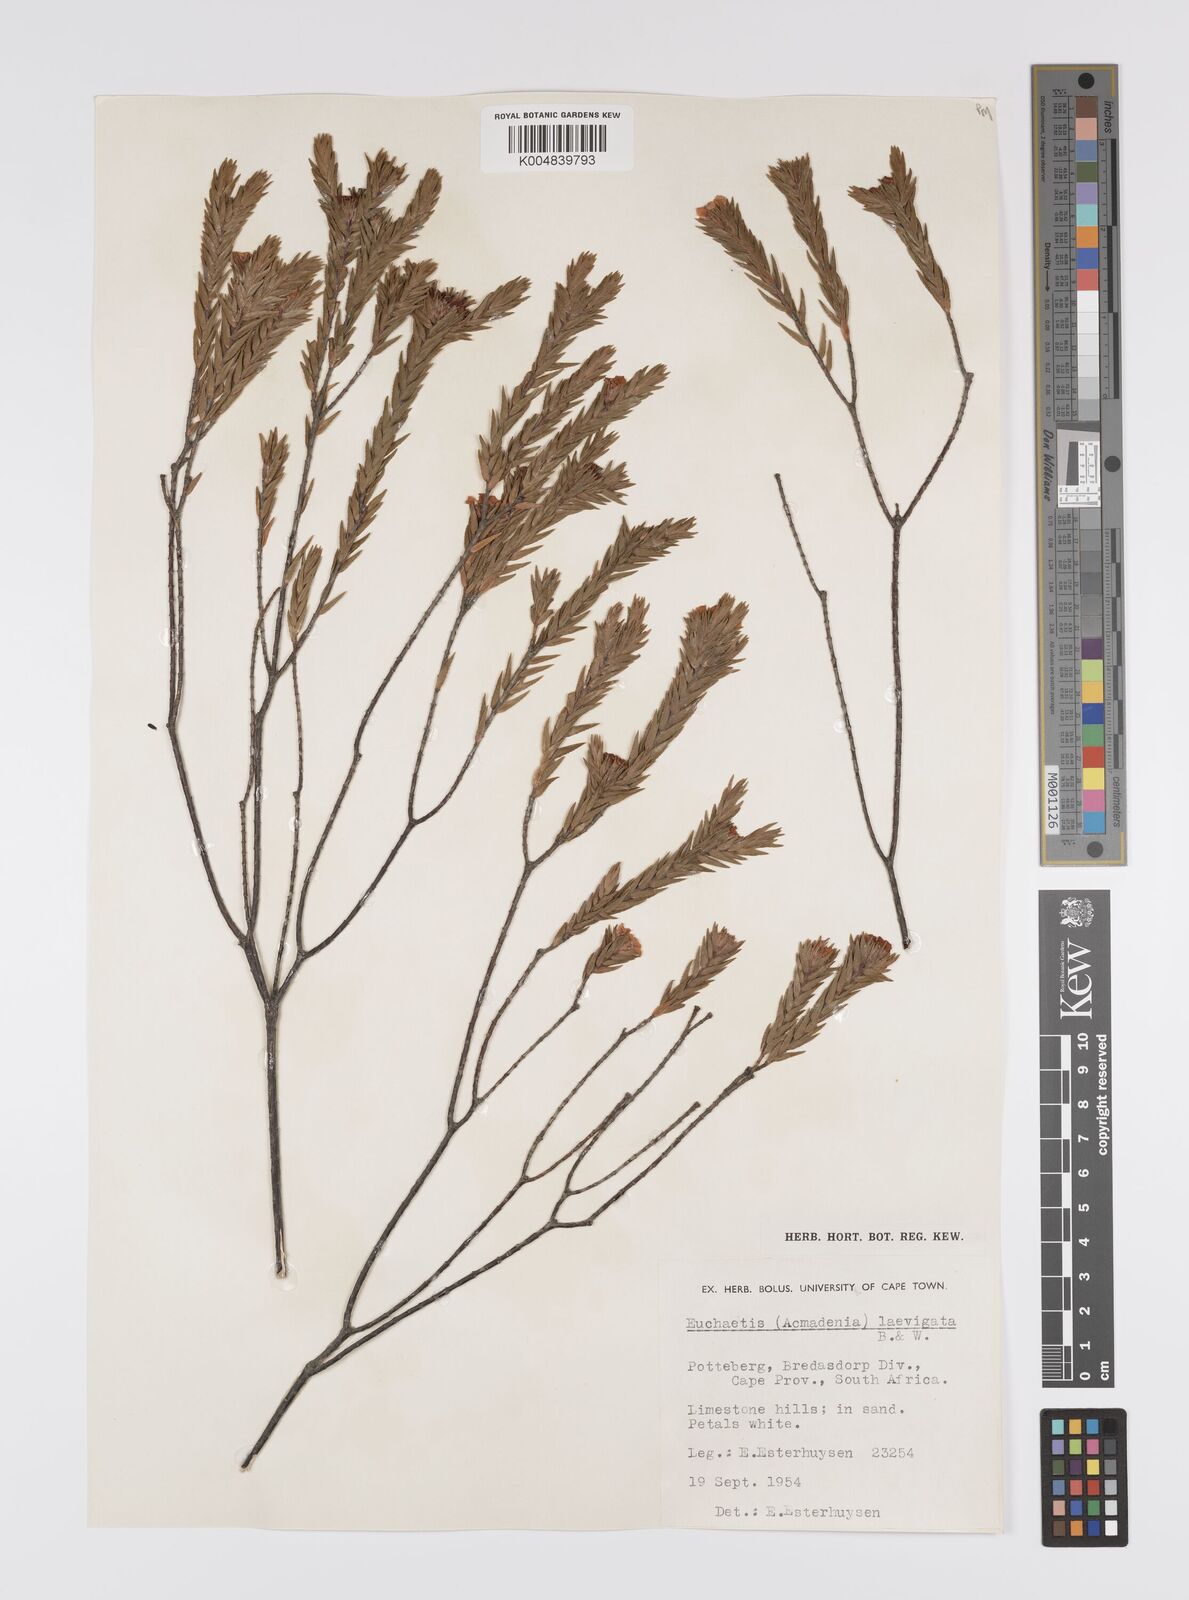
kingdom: Plantae
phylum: Tracheophyta
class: Magnoliopsida
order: Sapindales
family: Rutaceae
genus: Euchaetis
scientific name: Euchaetis
